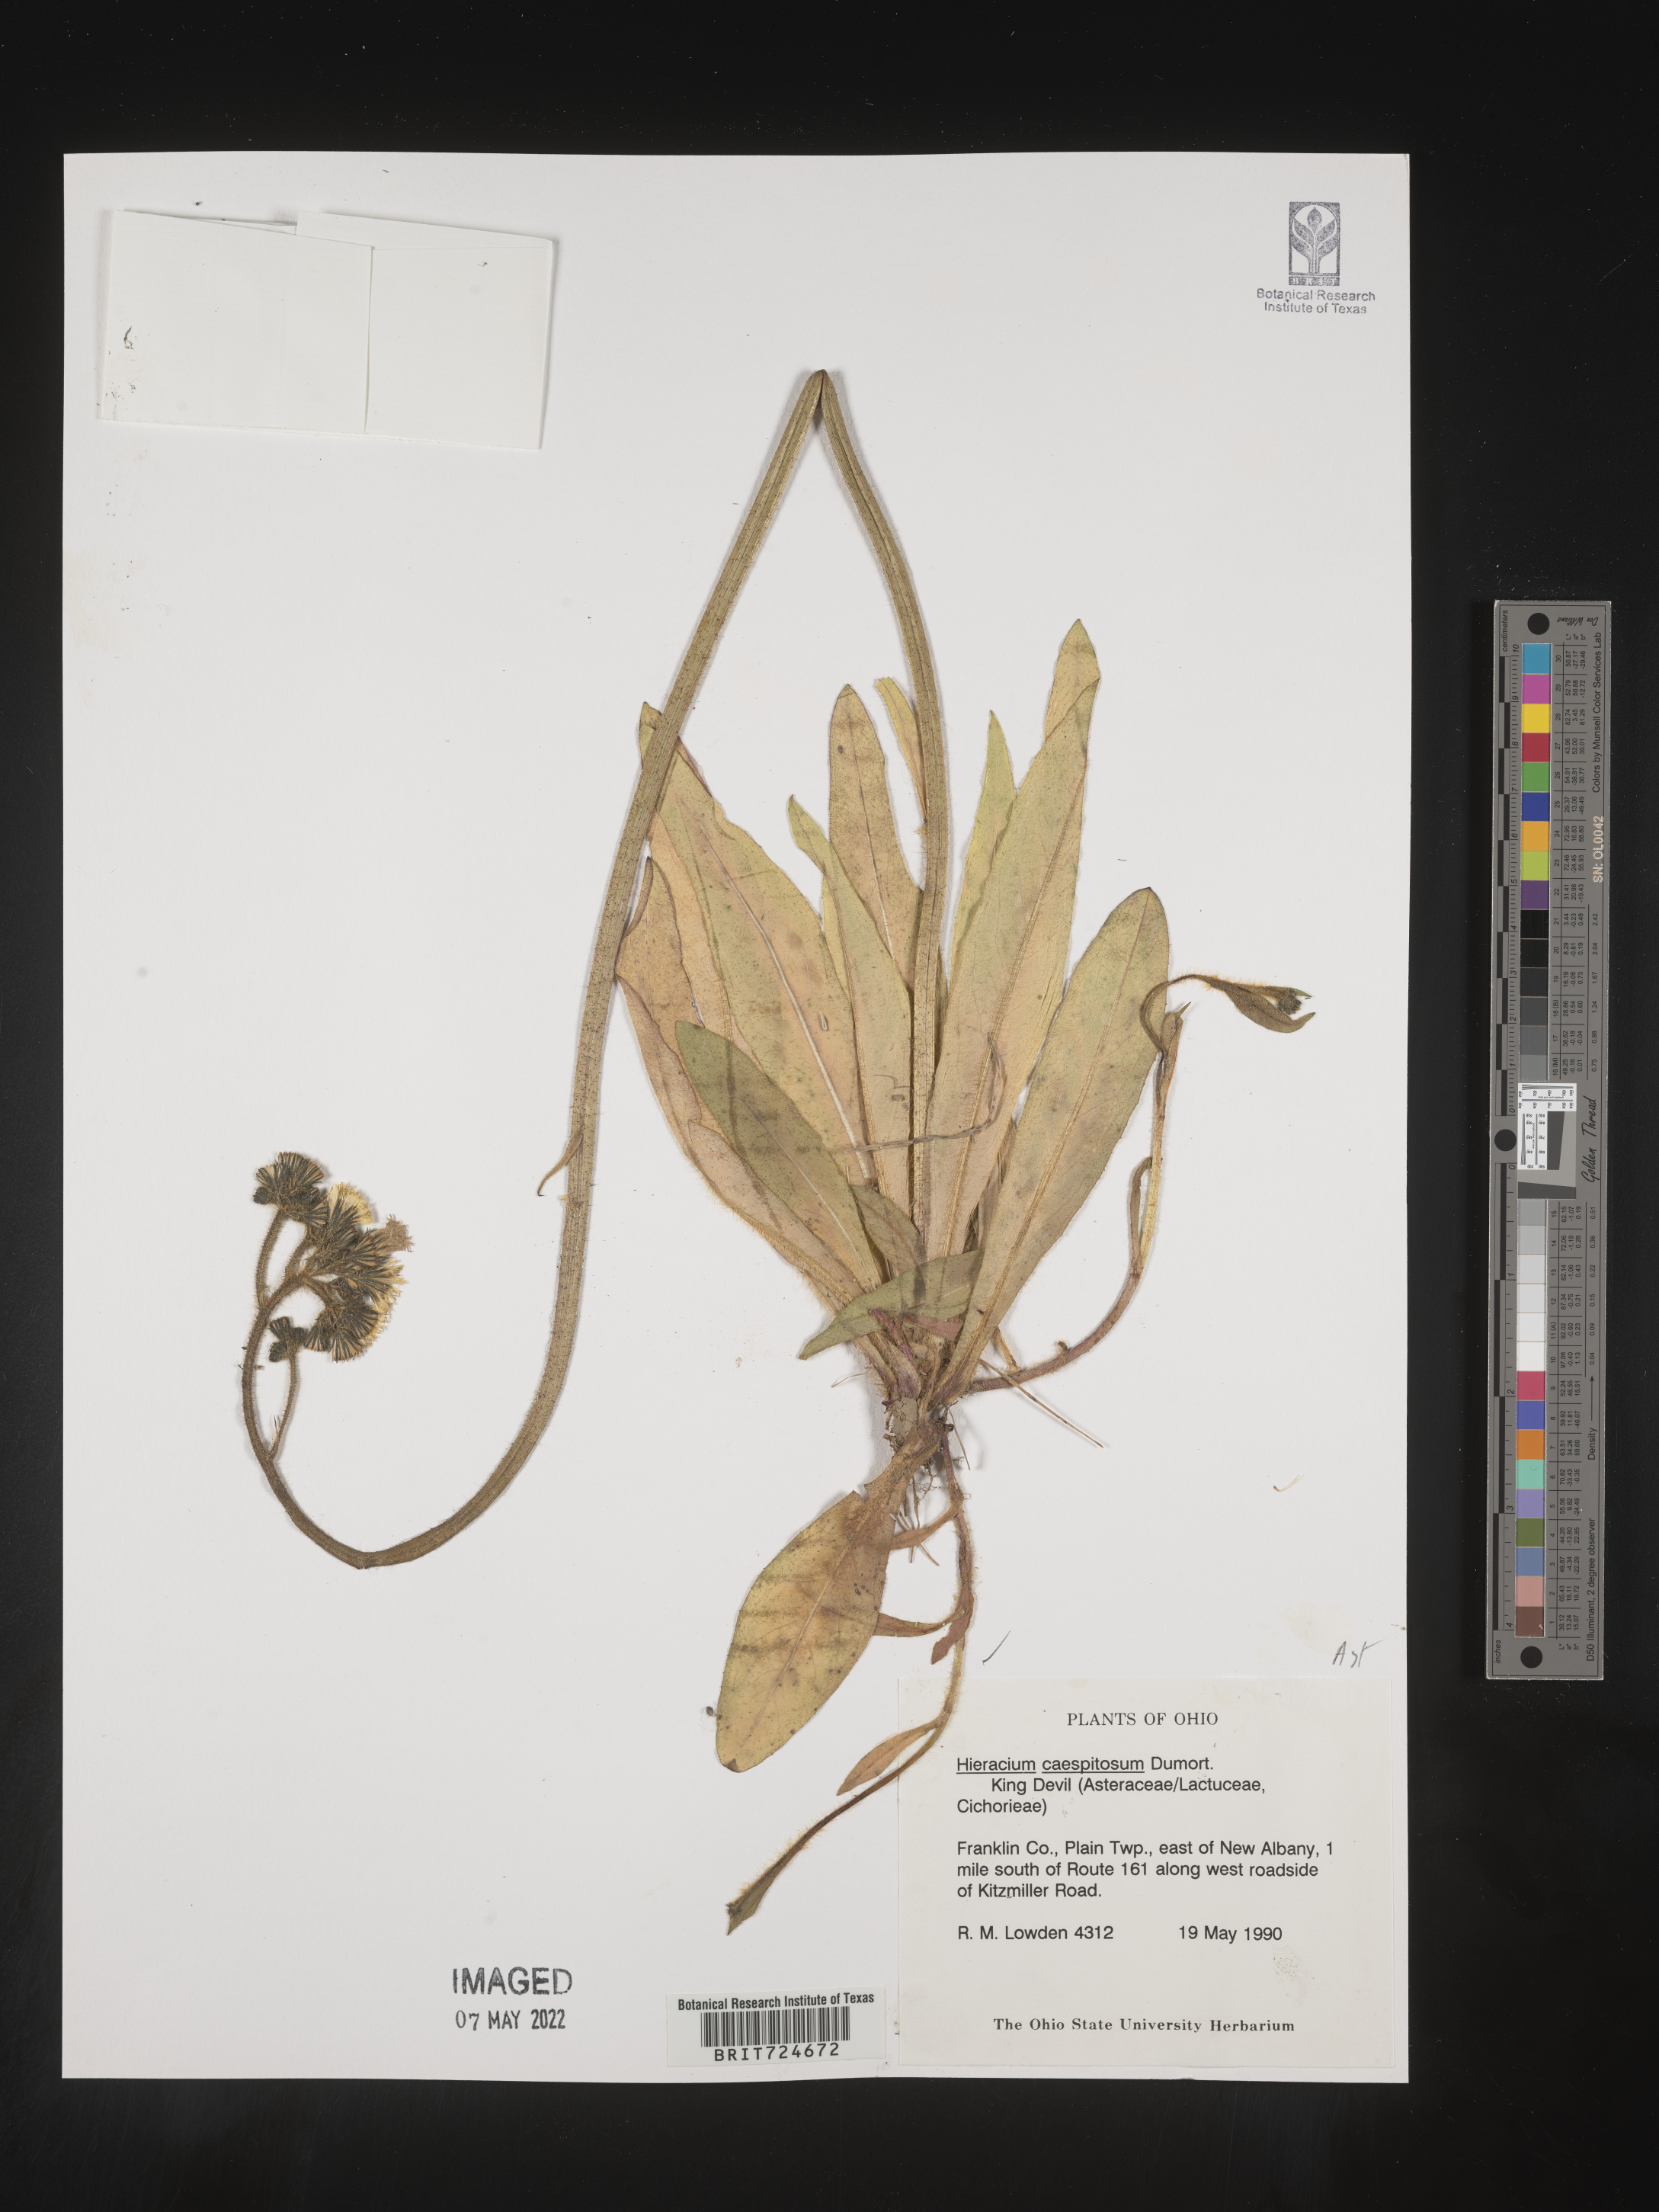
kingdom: Plantae
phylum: Tracheophyta
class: Magnoliopsida
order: Asterales
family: Asteraceae
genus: Hieracium
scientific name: Hieracium
